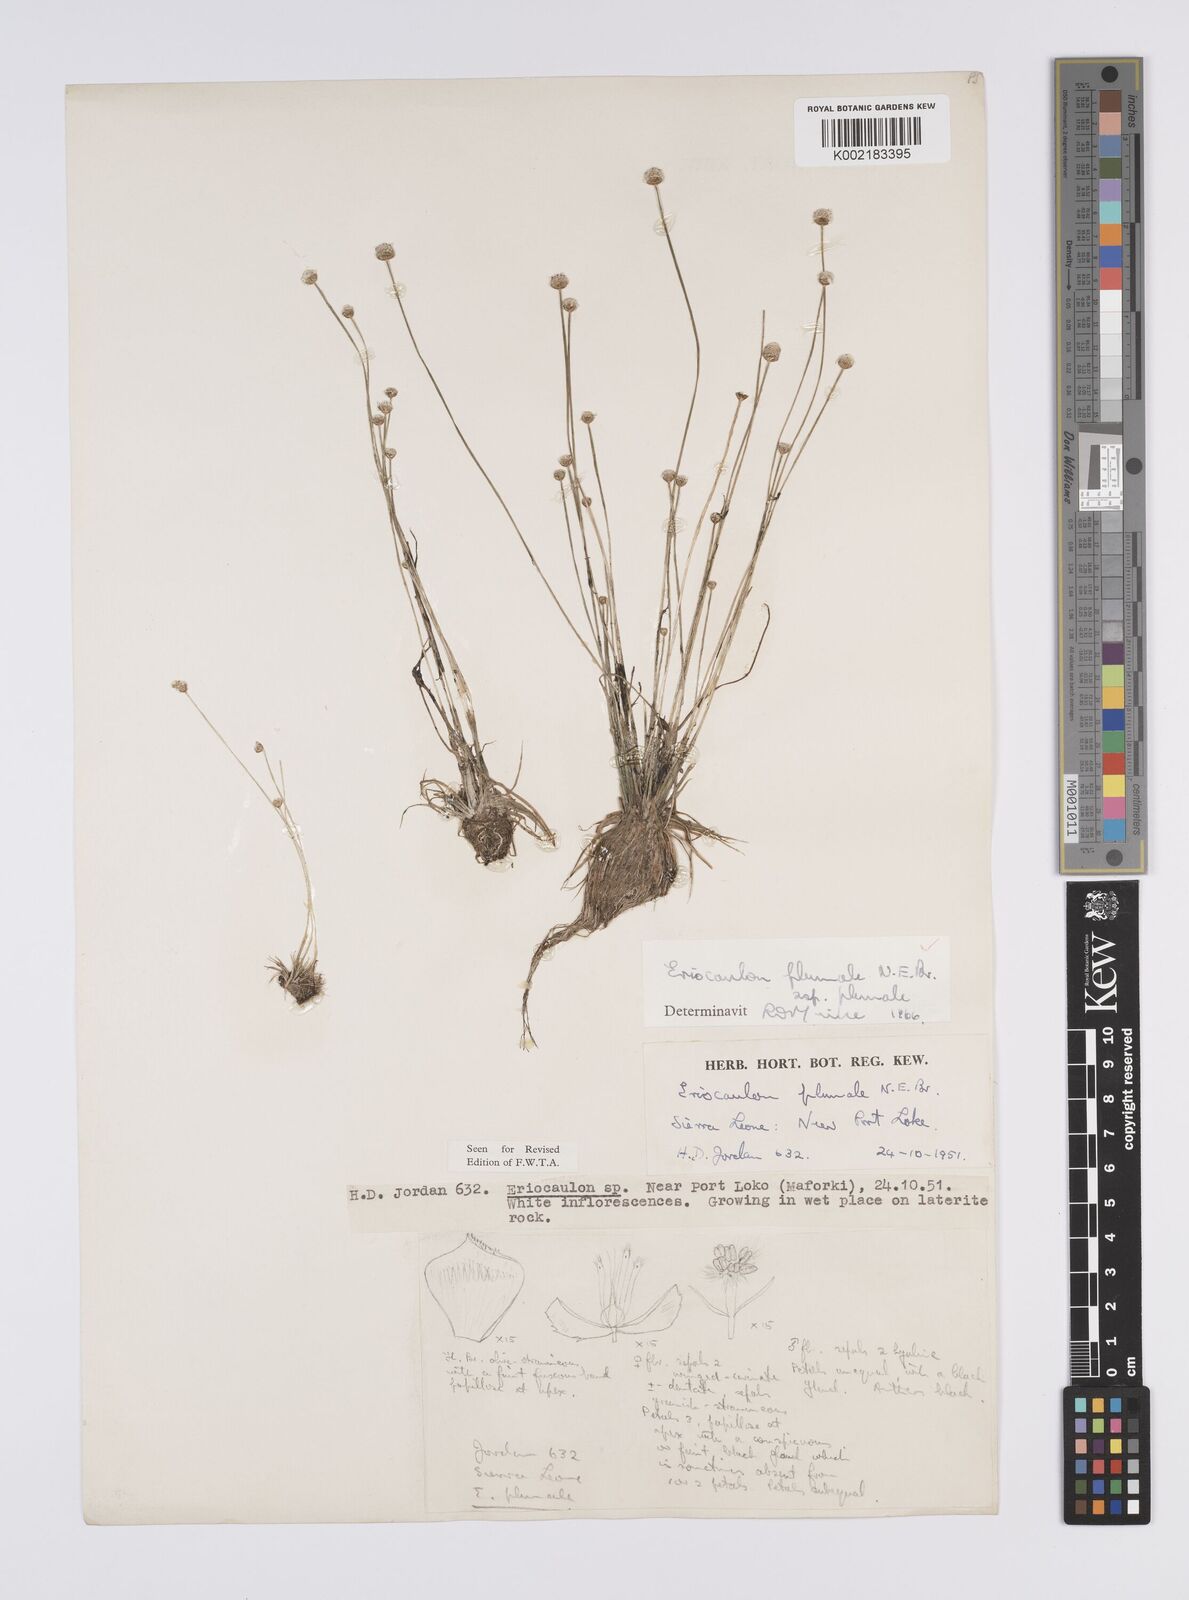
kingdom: Plantae
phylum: Tracheophyta
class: Liliopsida
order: Poales
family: Eriocaulaceae
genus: Eriocaulon
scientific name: Eriocaulon plumale
